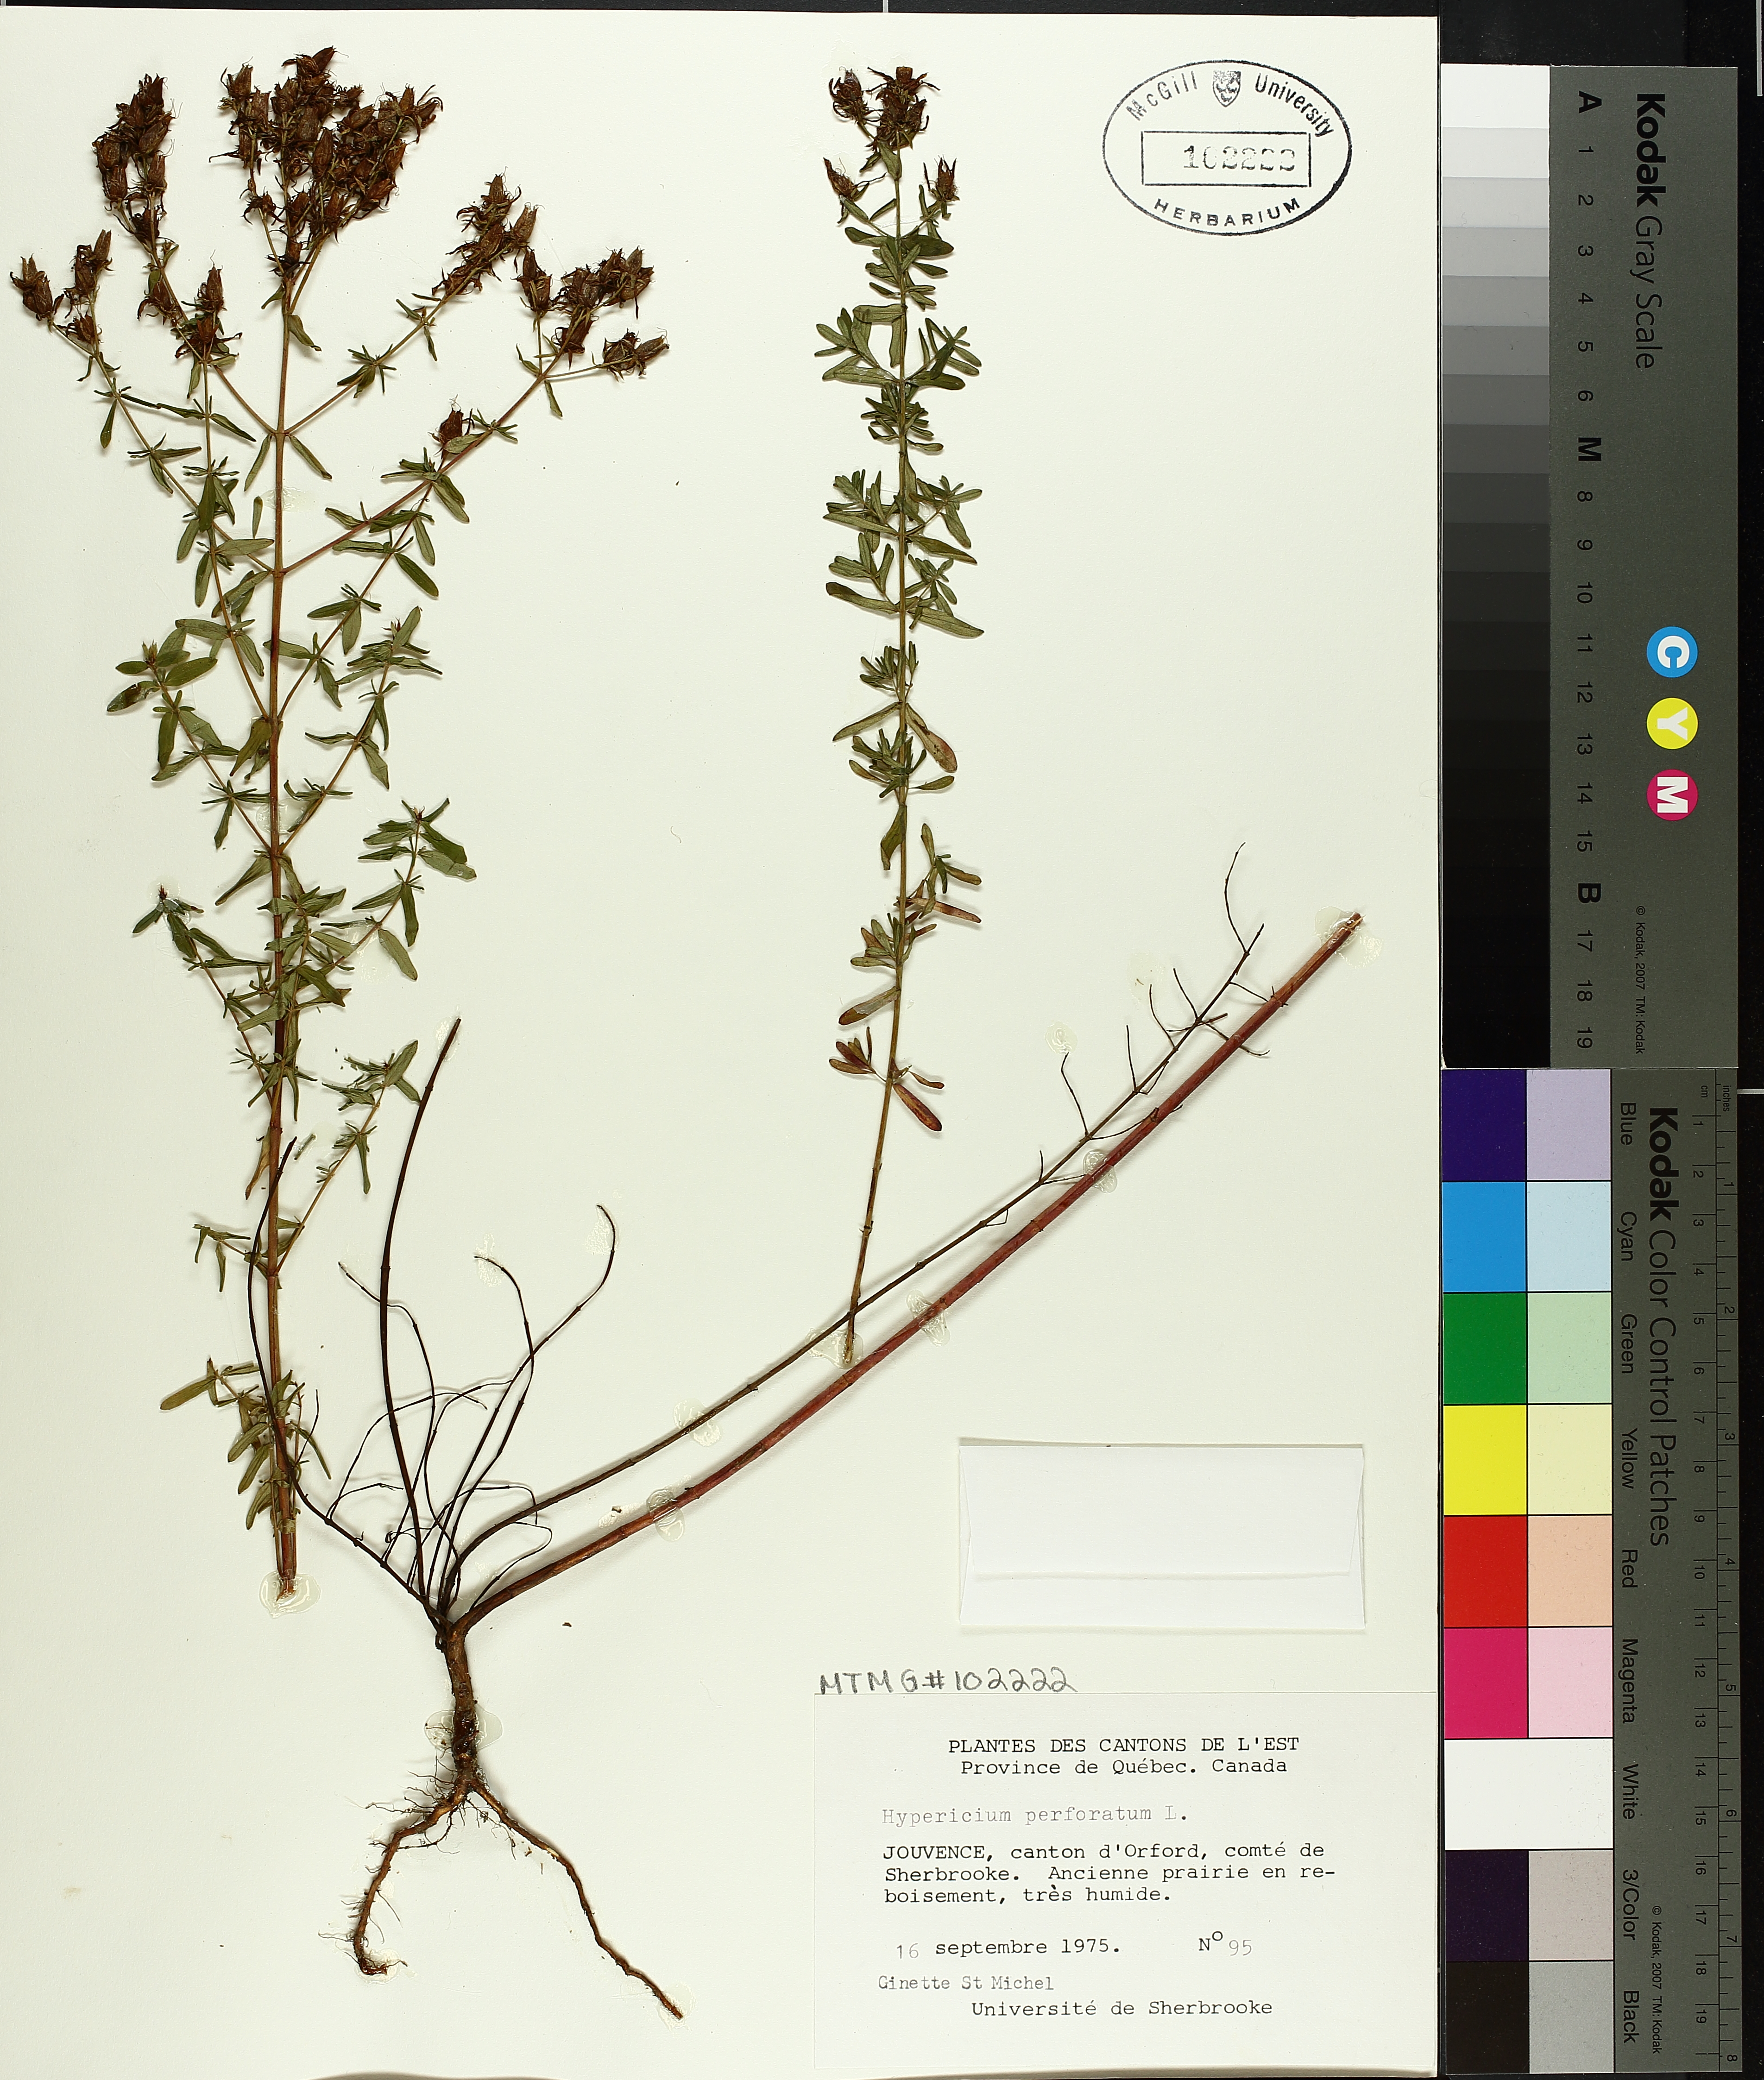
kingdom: Plantae
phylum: Tracheophyta
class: Magnoliopsida
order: Malpighiales
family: Hypericaceae
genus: Hypericum
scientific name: Hypericum perforatum
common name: Common st. johnswort
